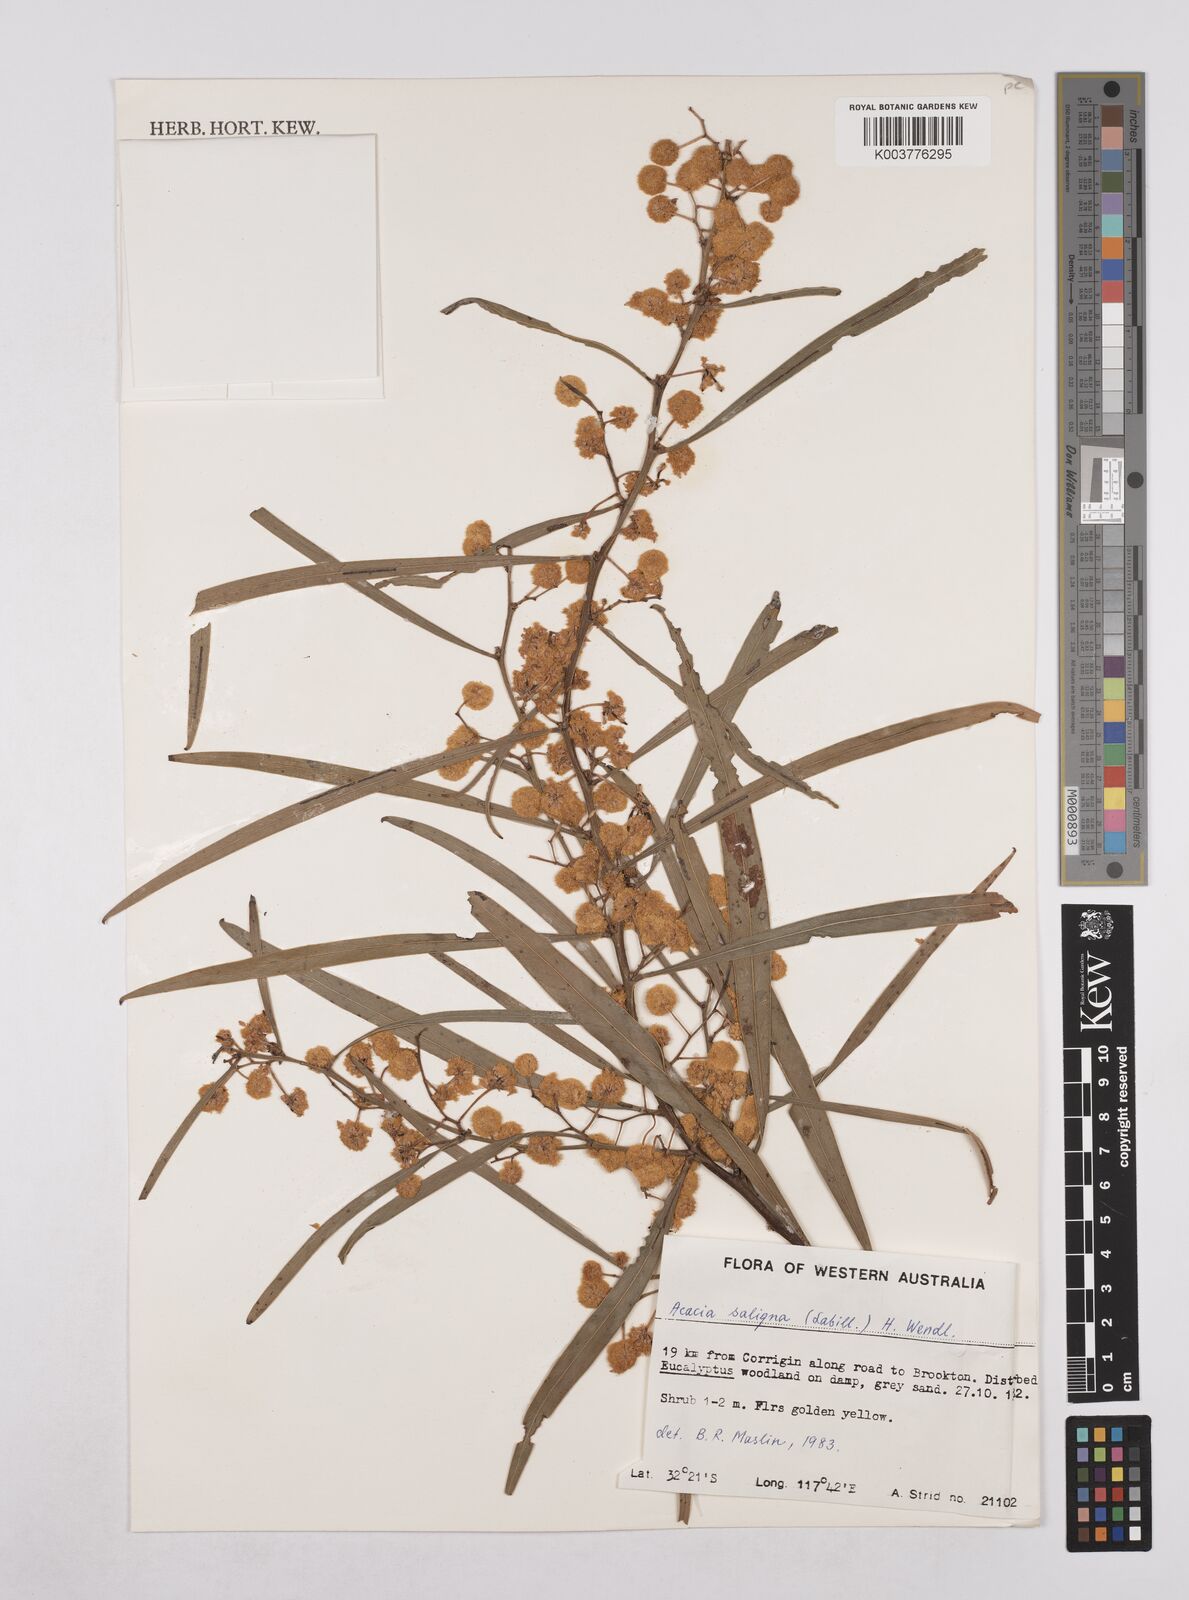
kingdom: Plantae
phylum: Tracheophyta
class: Magnoliopsida
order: Fabales
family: Fabaceae
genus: Acacia
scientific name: Acacia saligna
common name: Orange wattle
